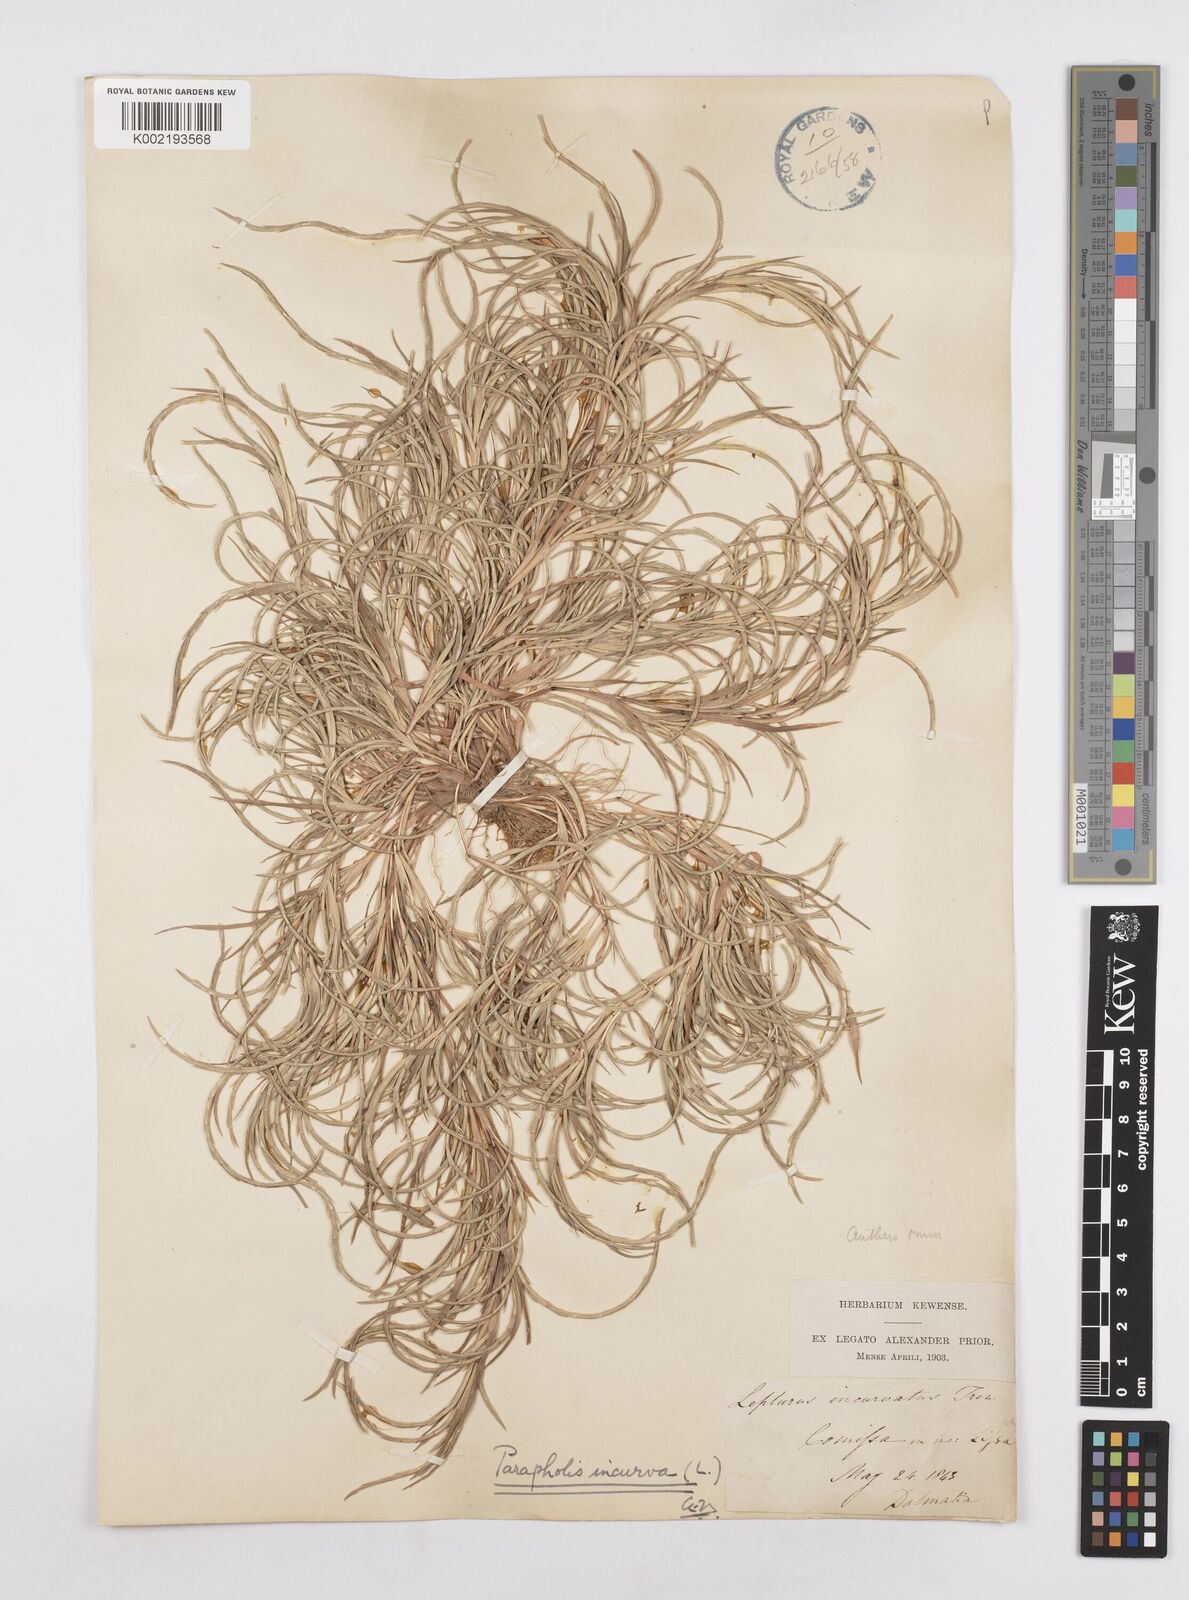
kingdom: Plantae
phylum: Tracheophyta
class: Liliopsida
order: Poales
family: Poaceae
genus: Parapholis
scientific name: Parapholis incurva
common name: Curved sicklegrass
